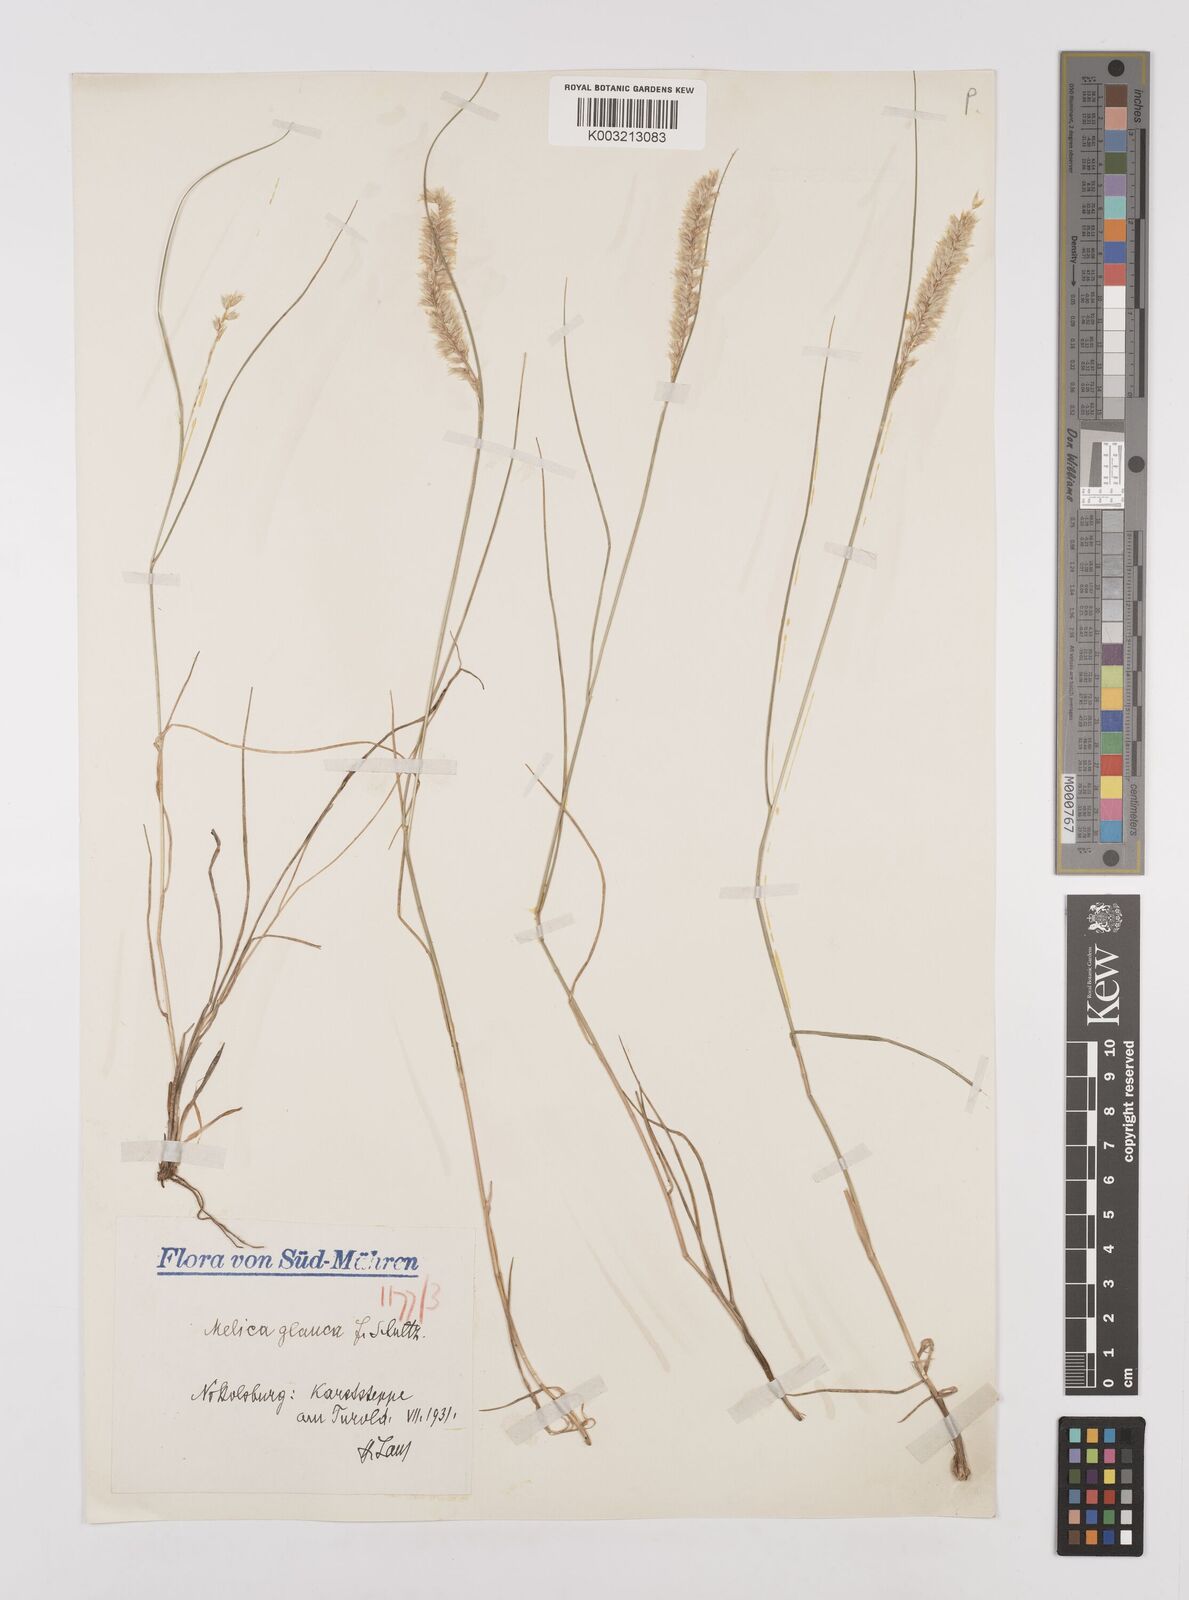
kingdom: Plantae
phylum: Tracheophyta
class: Liliopsida
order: Poales
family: Poaceae
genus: Melica
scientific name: Melica ciliata
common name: Hairy melicgrass
